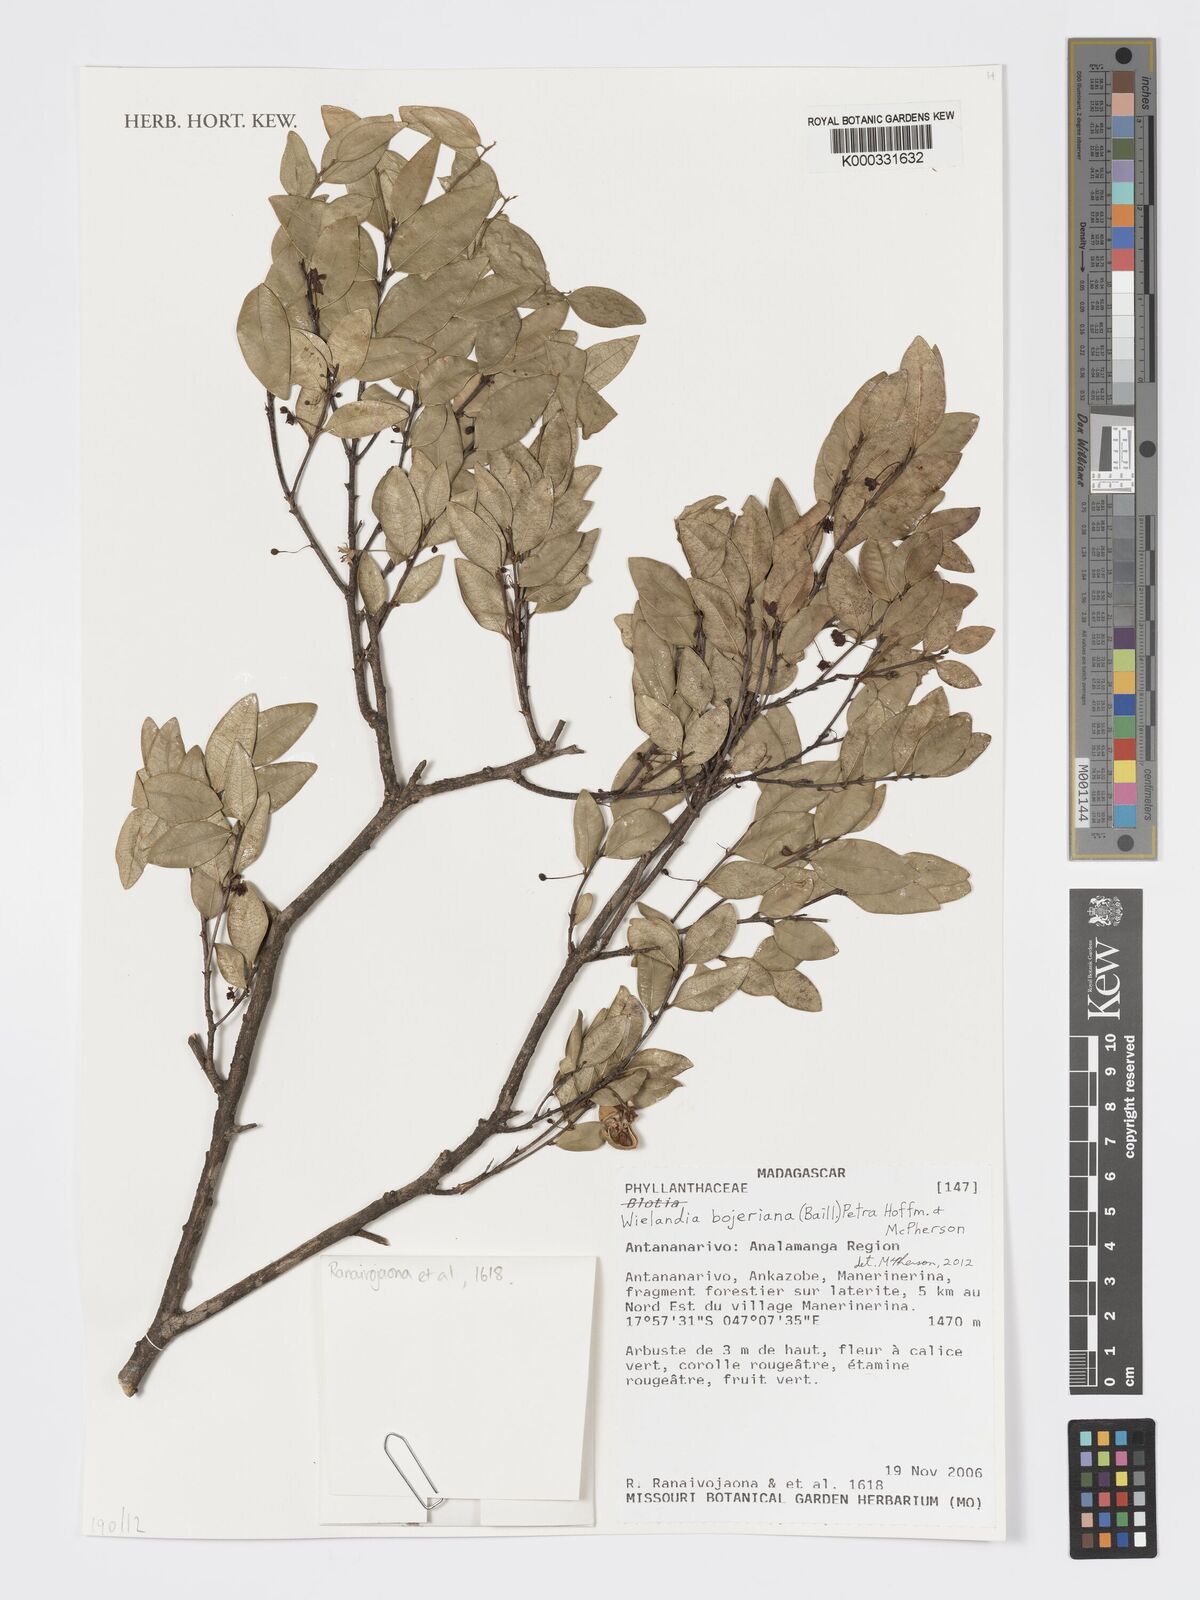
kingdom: Plantae
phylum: Tracheophyta
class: Magnoliopsida
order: Myrtales
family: Myrtaceae
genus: Myrcia
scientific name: Myrcia
